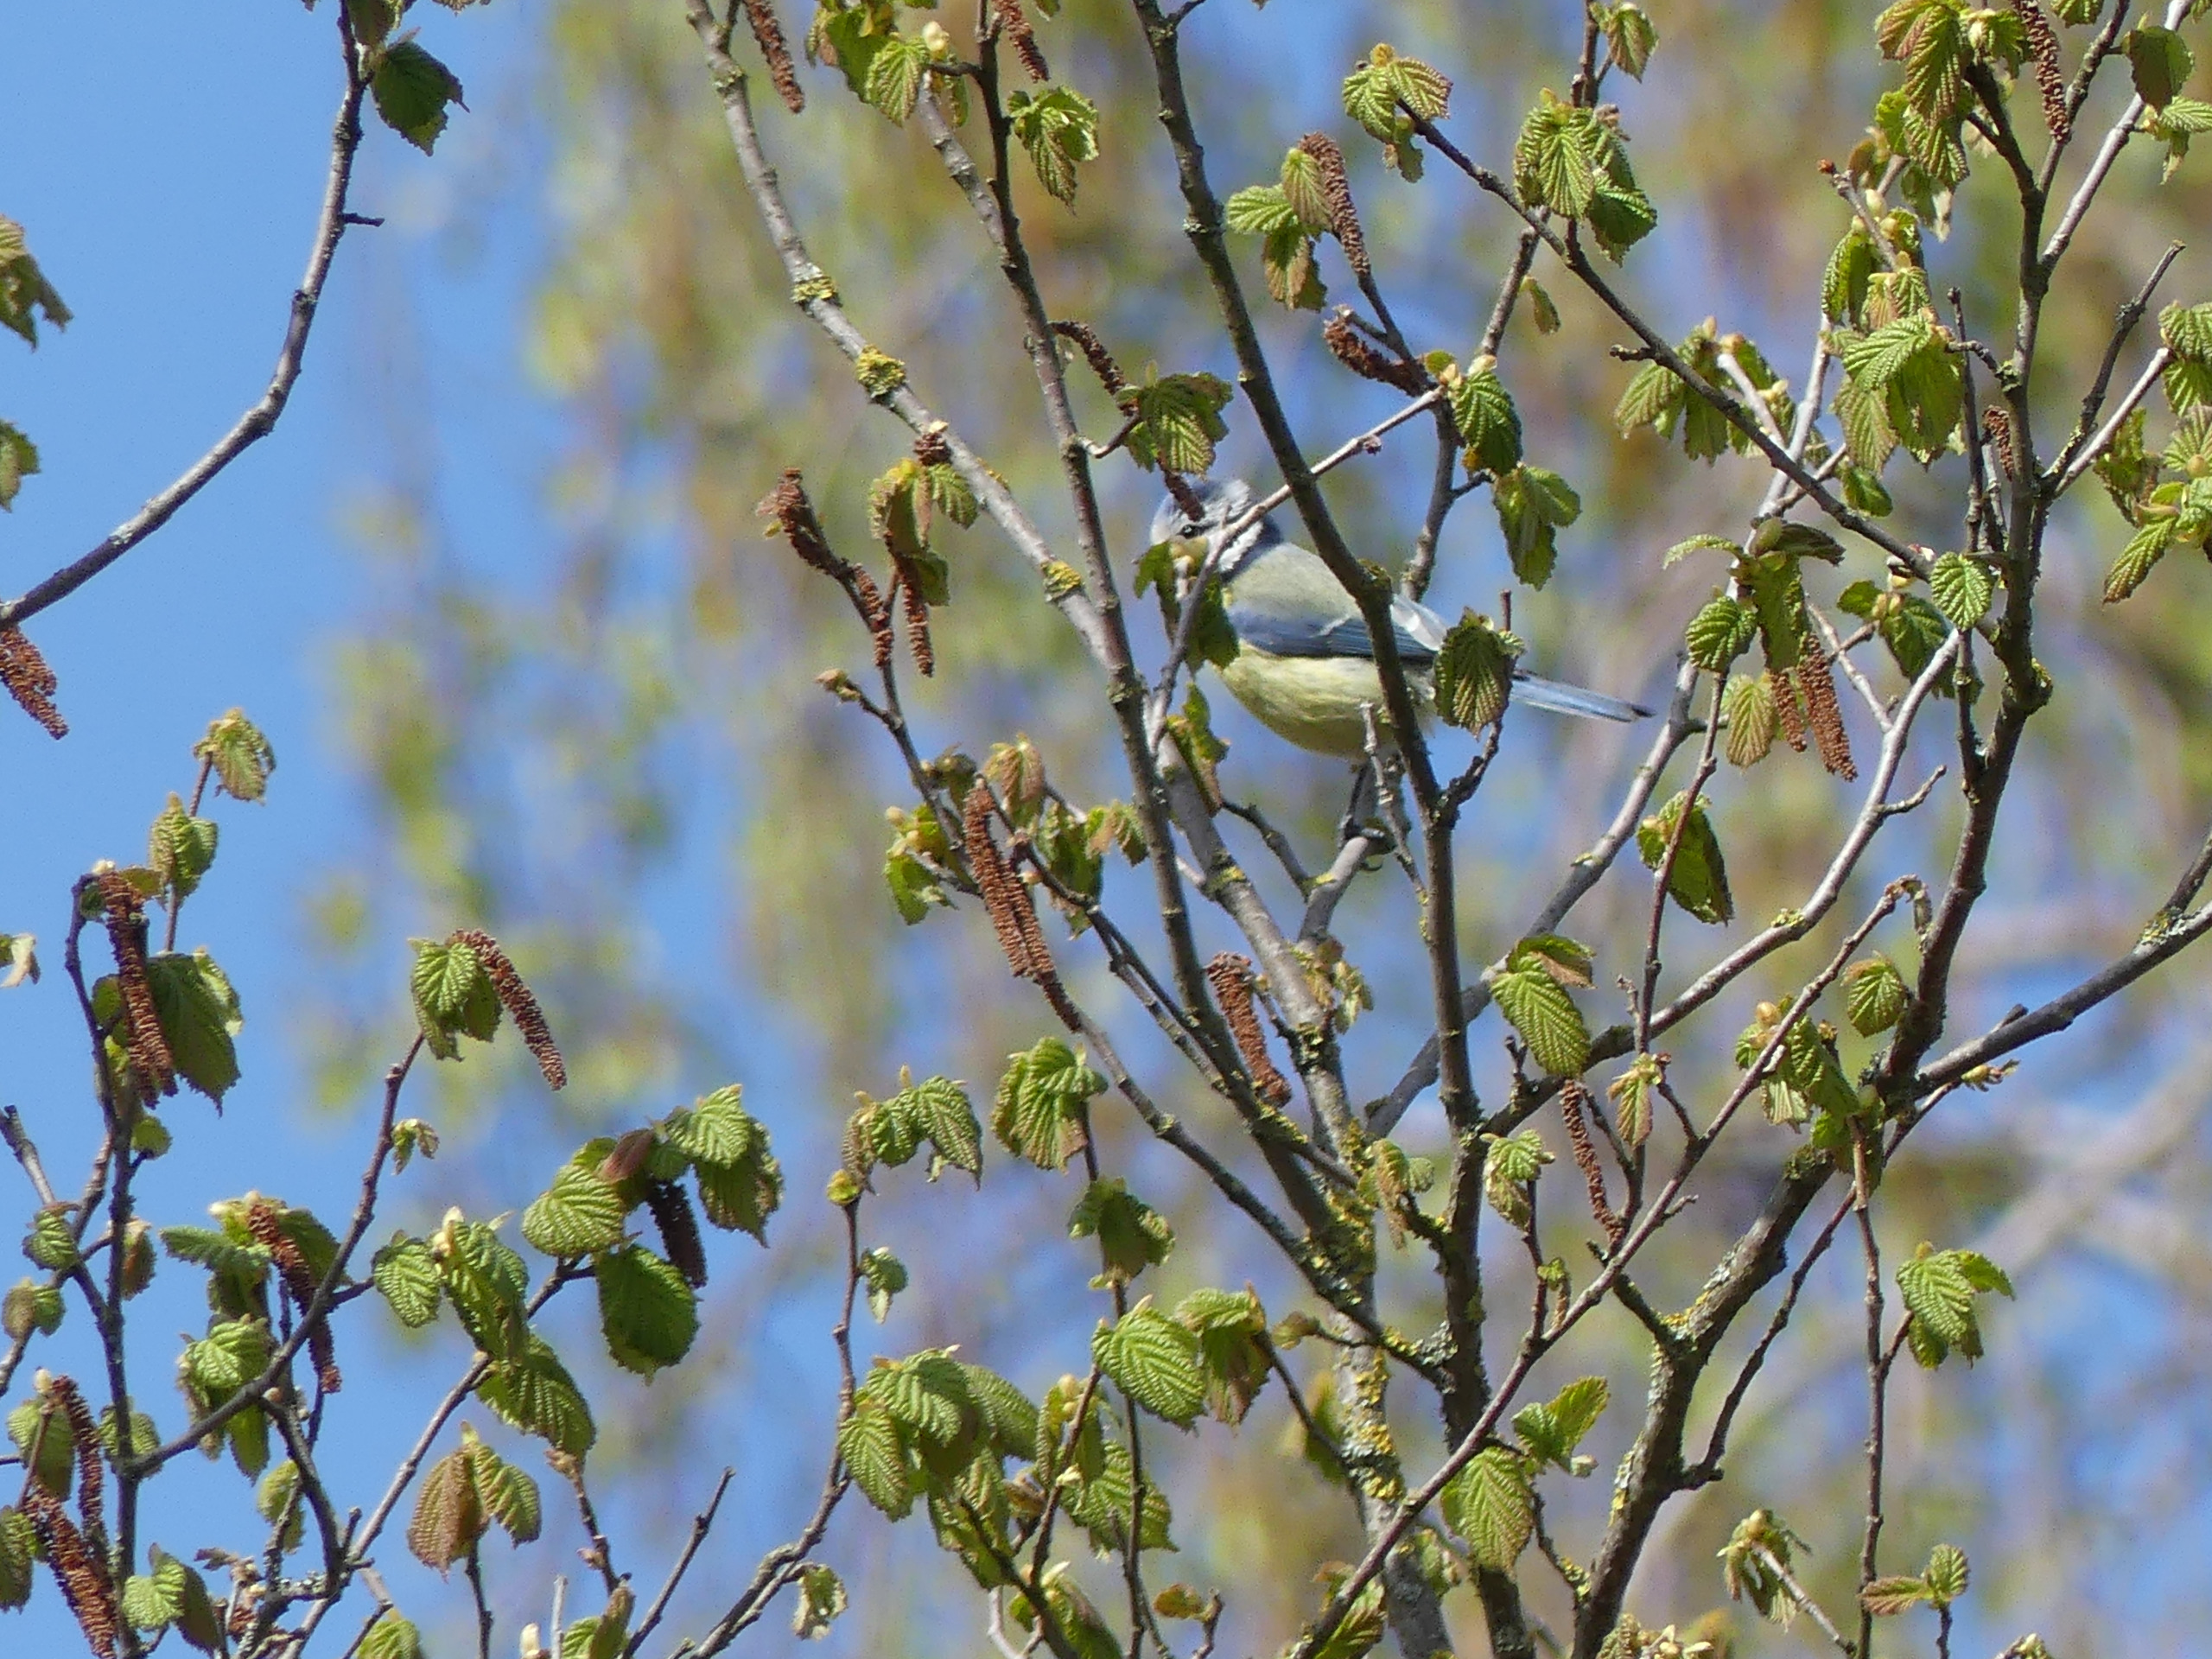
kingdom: Animalia
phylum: Chordata
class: Aves
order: Passeriformes
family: Paridae
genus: Cyanistes
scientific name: Cyanistes caeruleus
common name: Blåmejse
